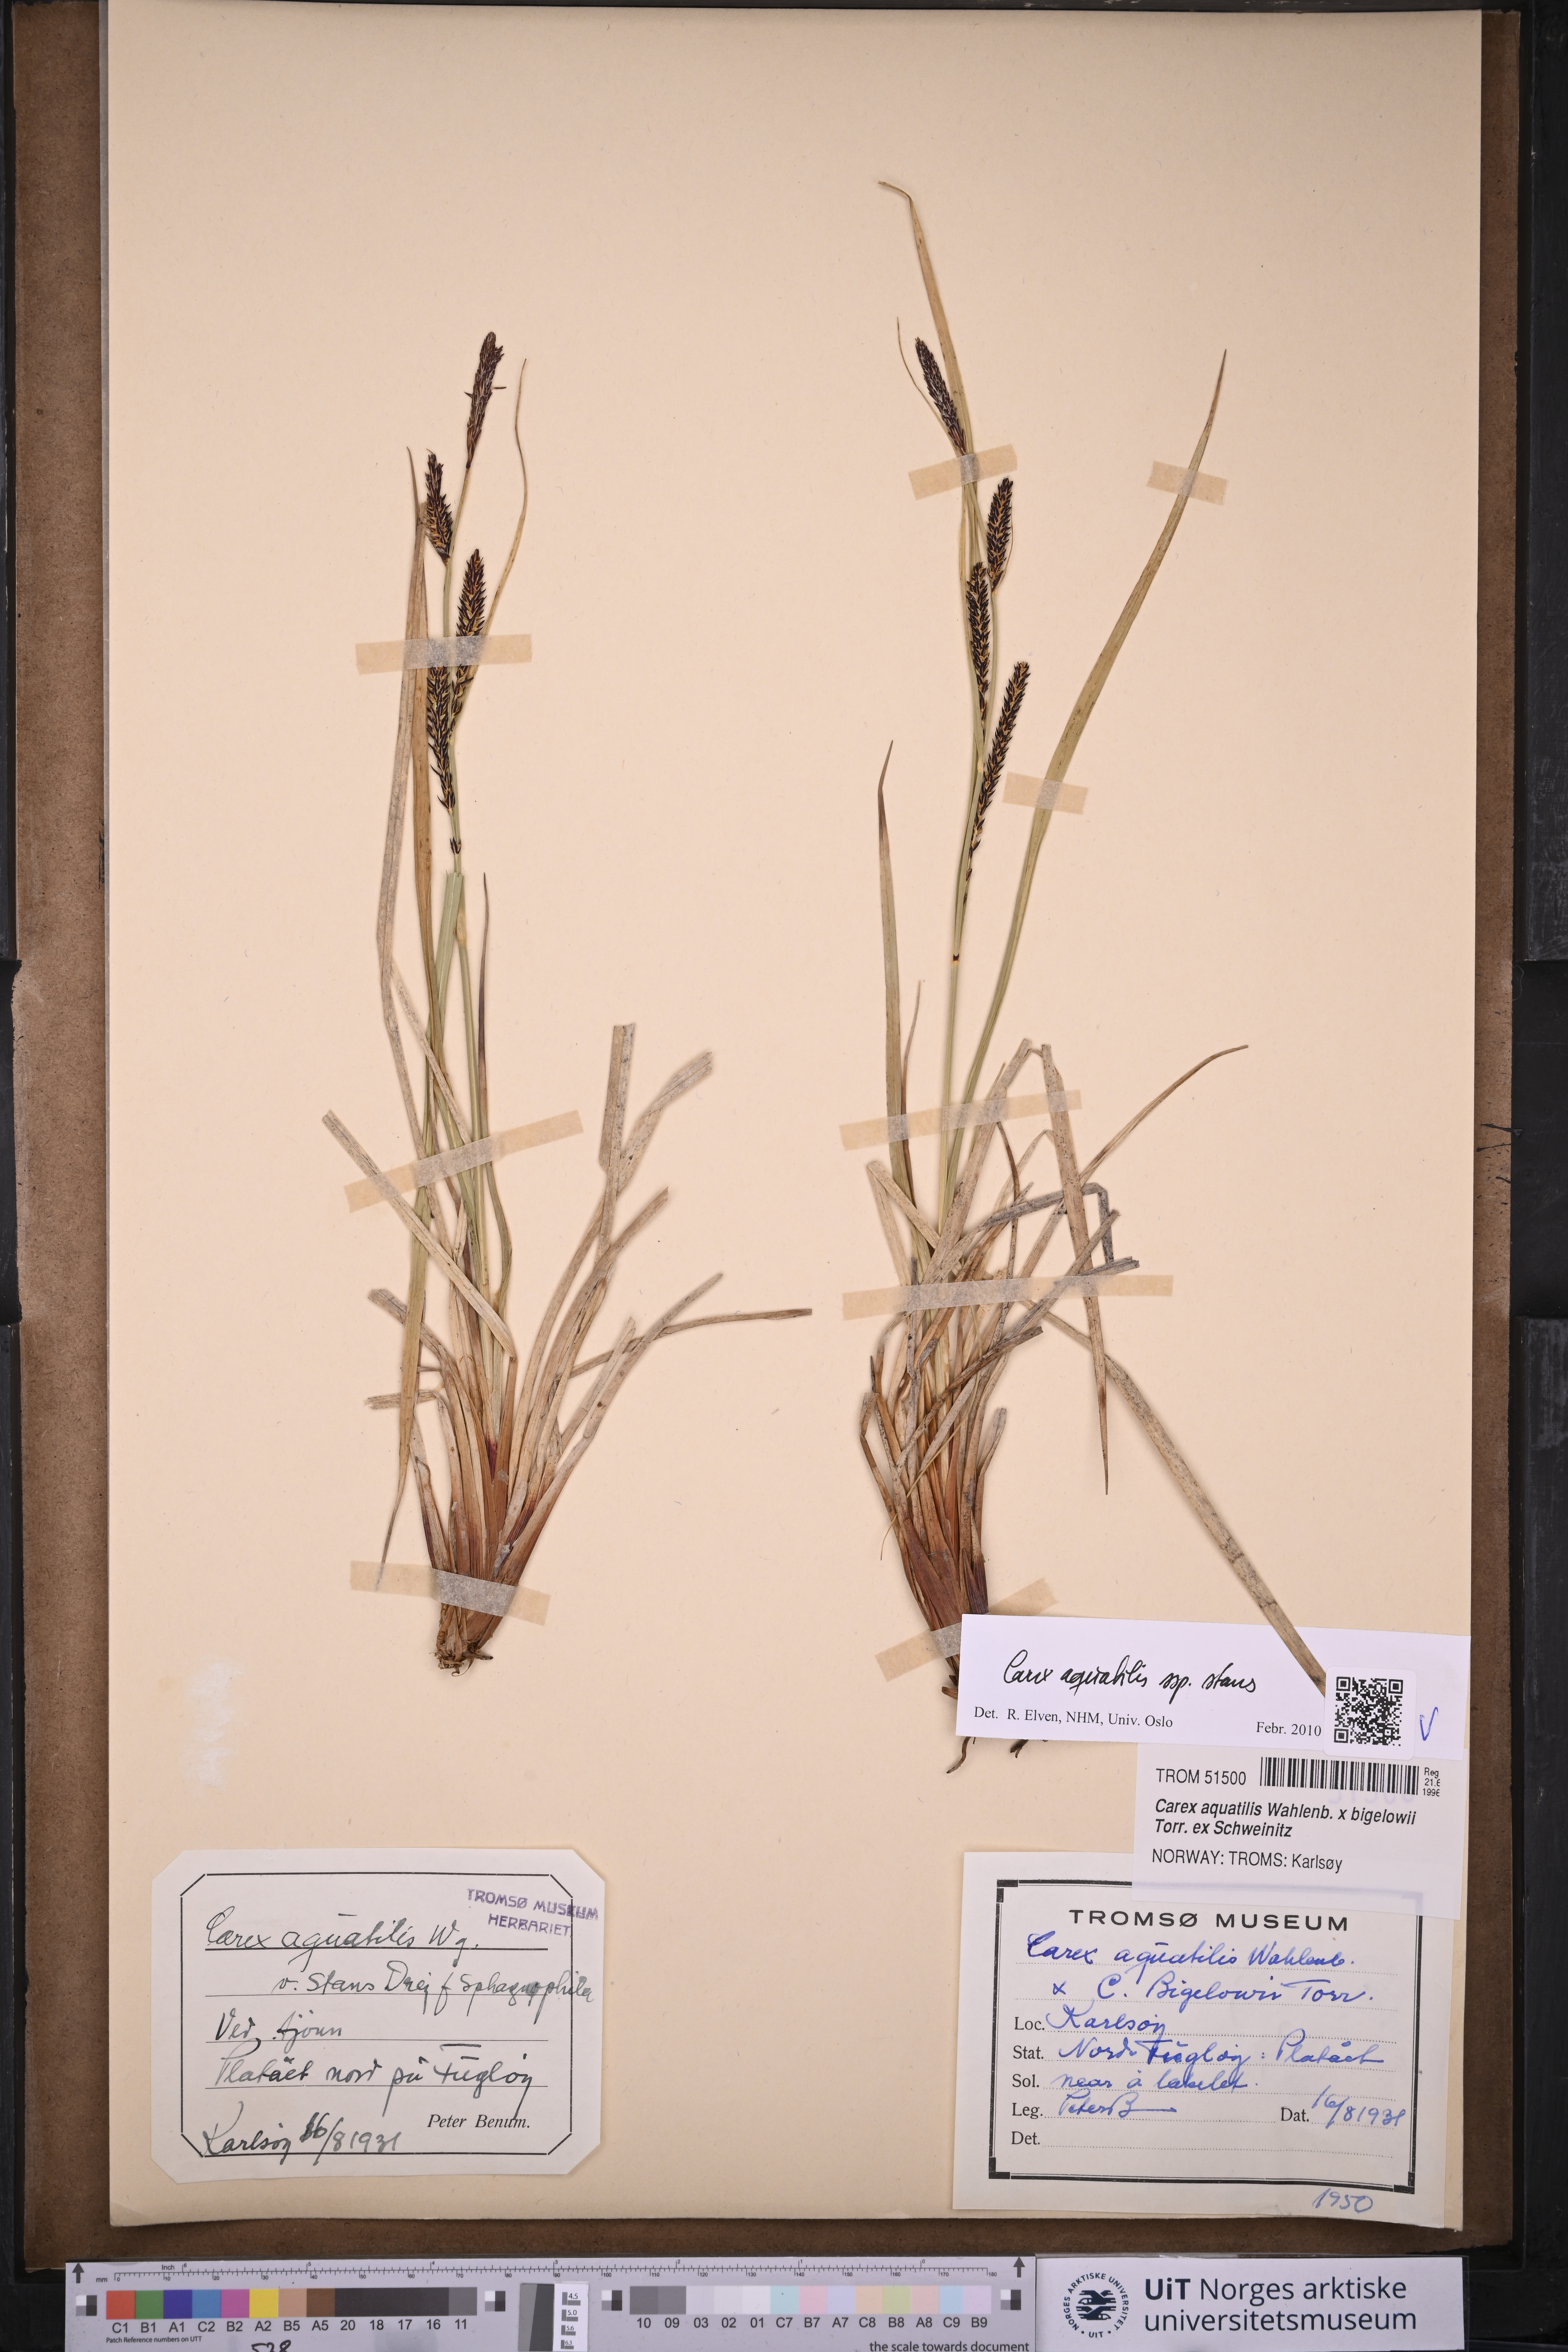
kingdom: Plantae
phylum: Tracheophyta
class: Liliopsida
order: Poales
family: Cyperaceae
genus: Carex
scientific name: Carex aquatilis
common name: Water sedge
